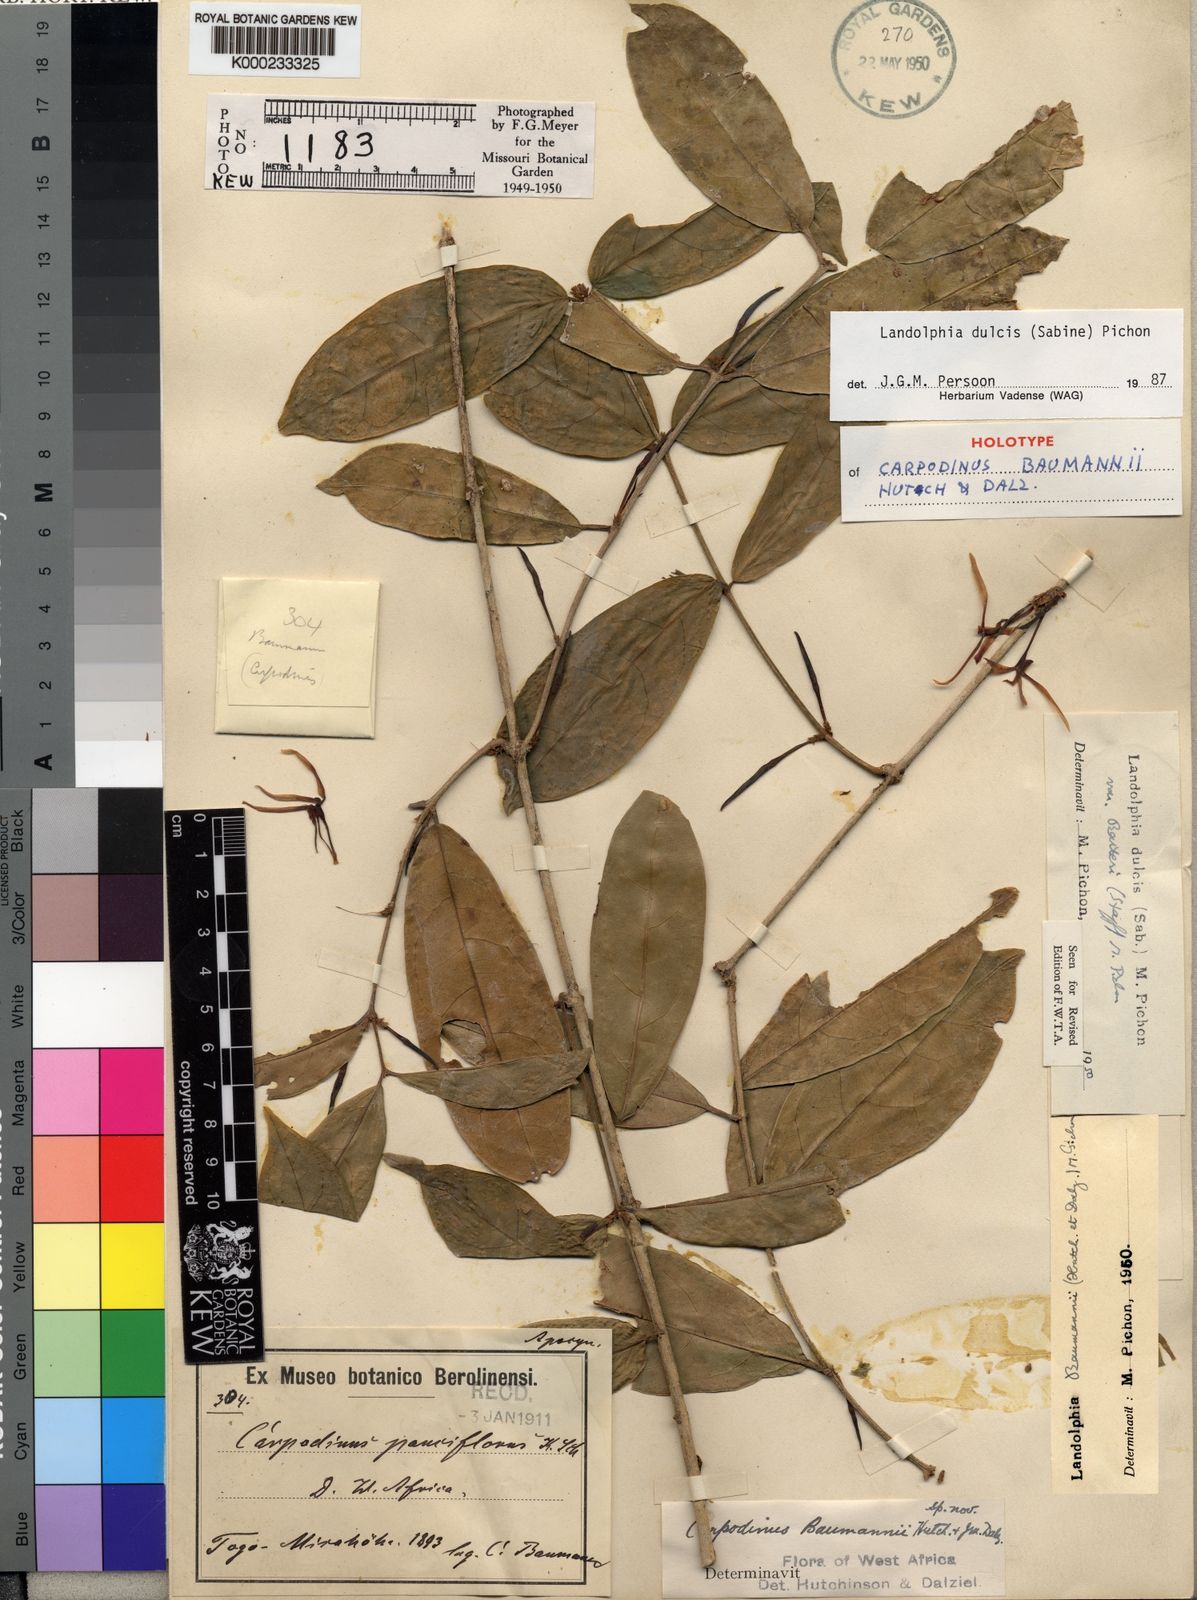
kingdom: Plantae
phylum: Tracheophyta
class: Magnoliopsida
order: Gentianales
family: Apocynaceae
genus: Landolphia
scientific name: Landolphia dulcis
